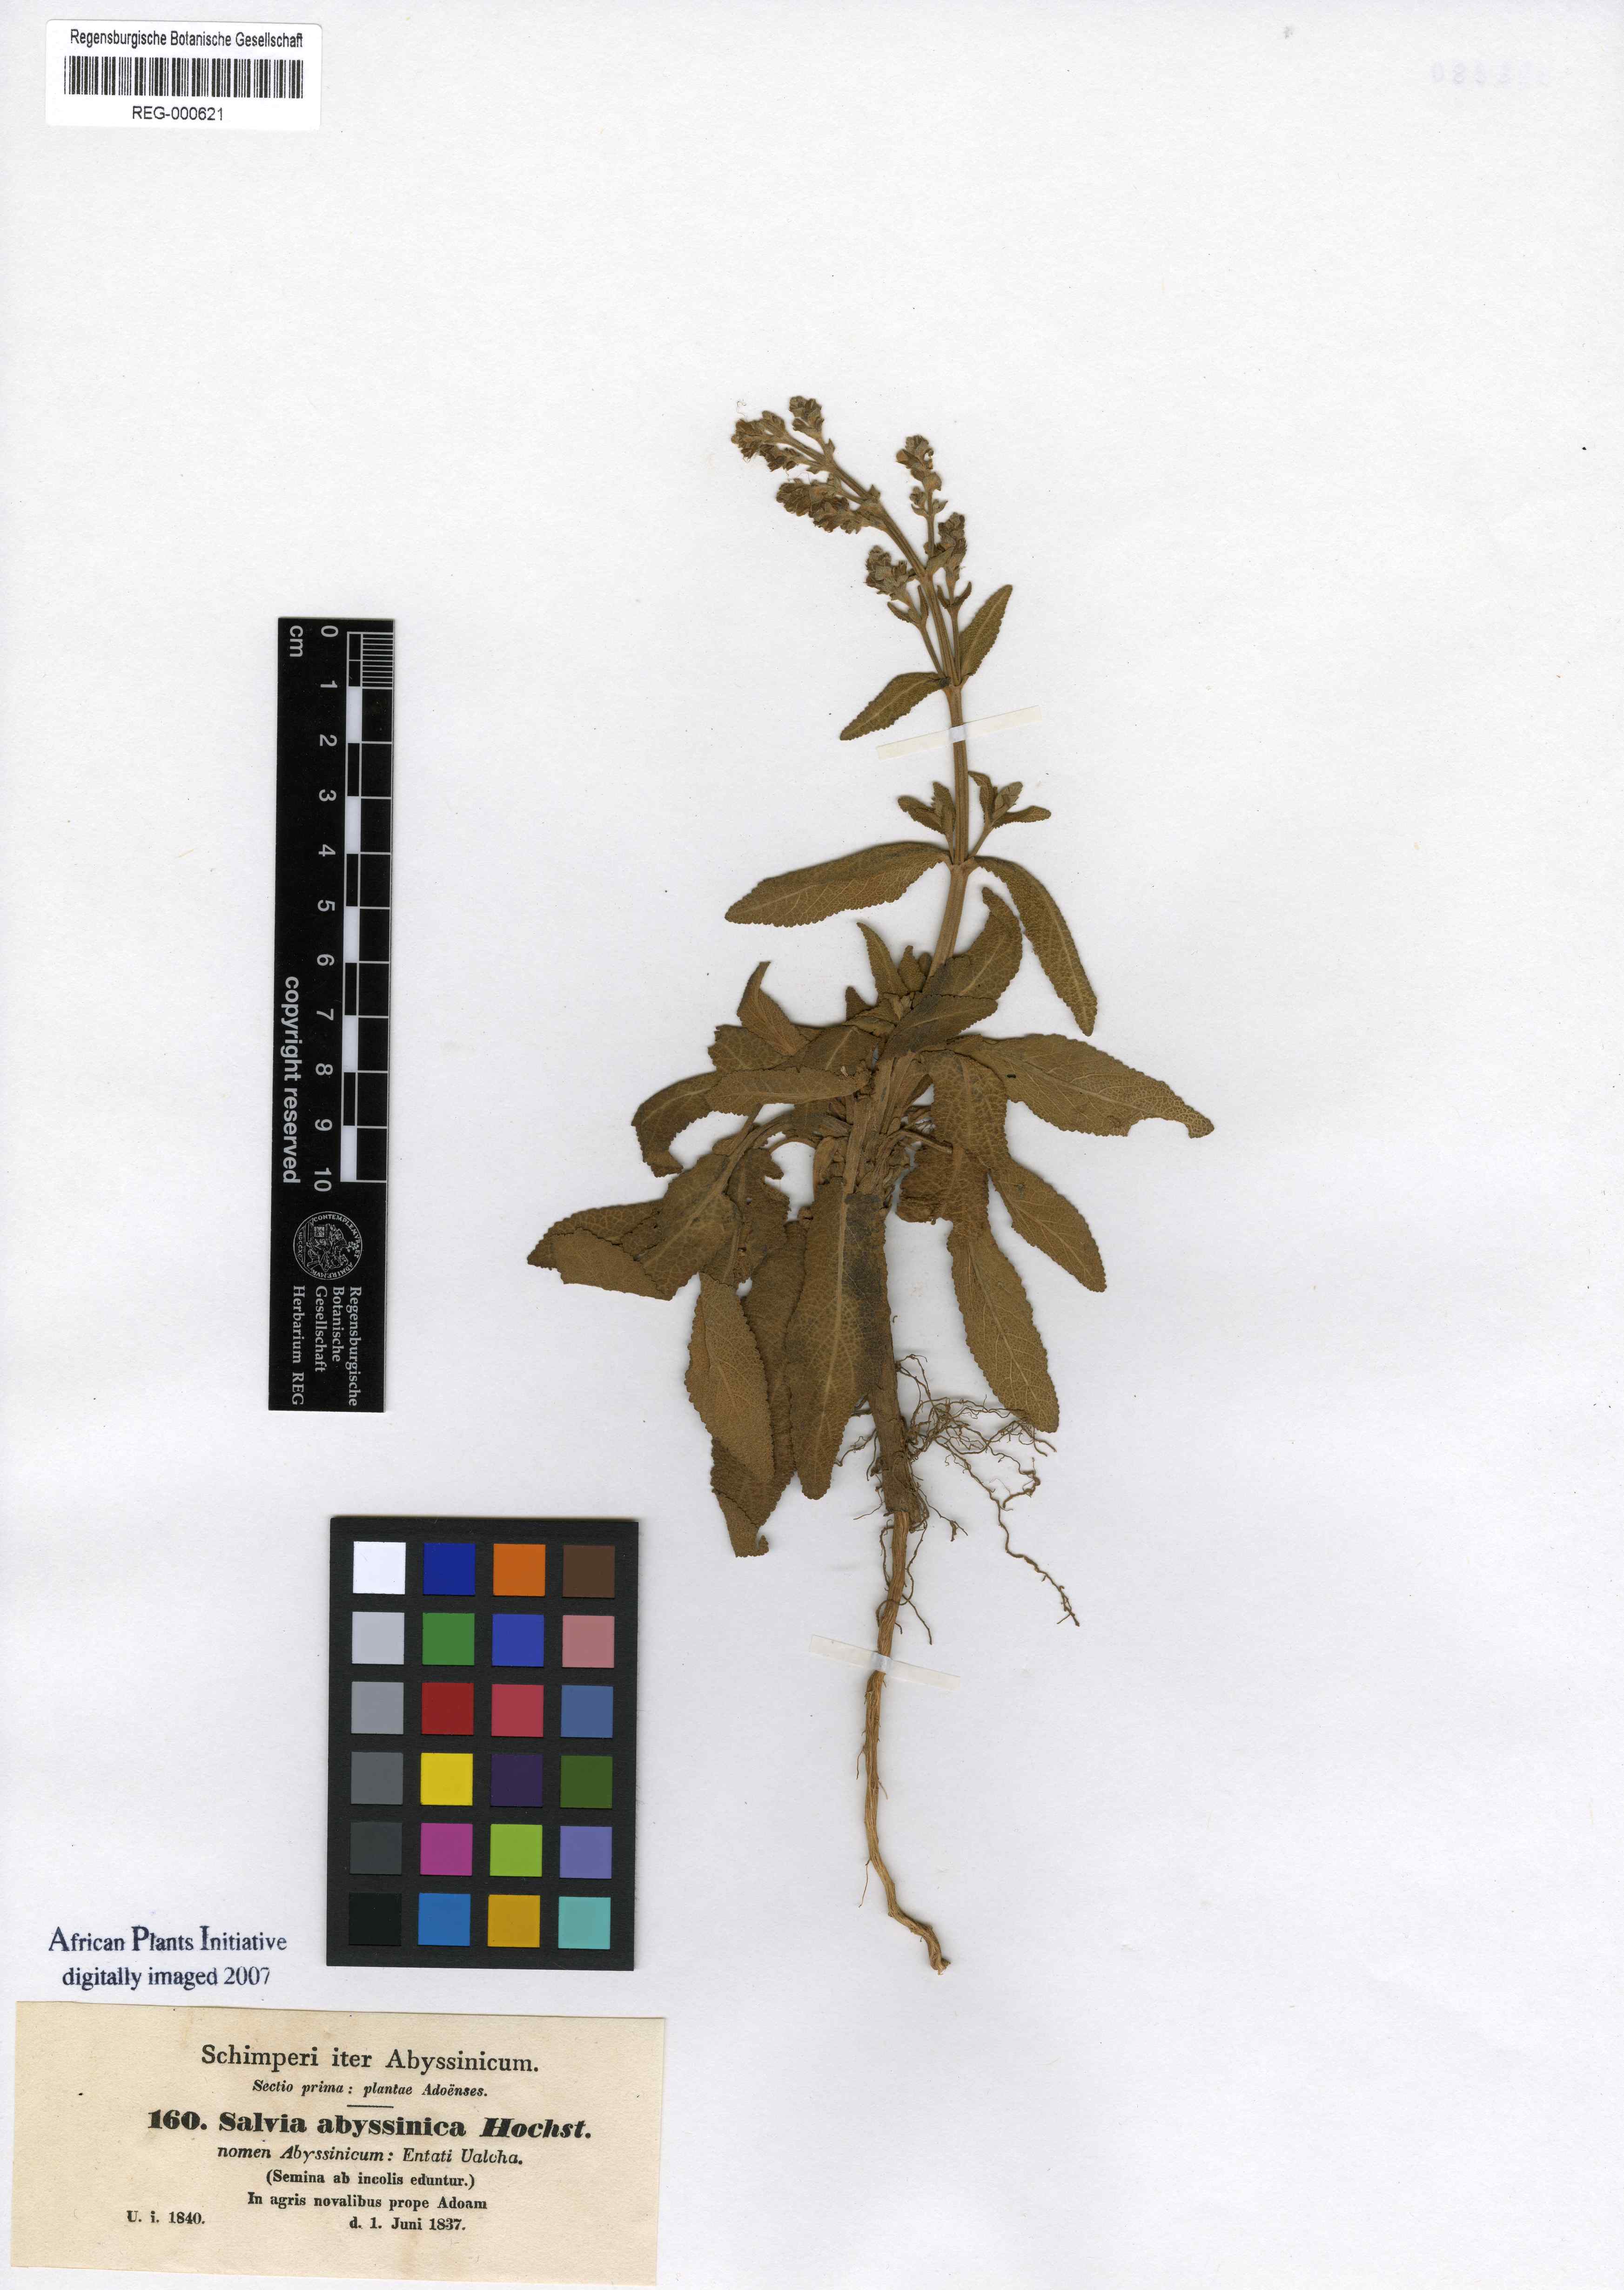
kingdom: Plantae
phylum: Tracheophyta
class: Magnoliopsida
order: Lamiales
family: Lamiaceae
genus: Salvia
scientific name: Salvia abyssinica
